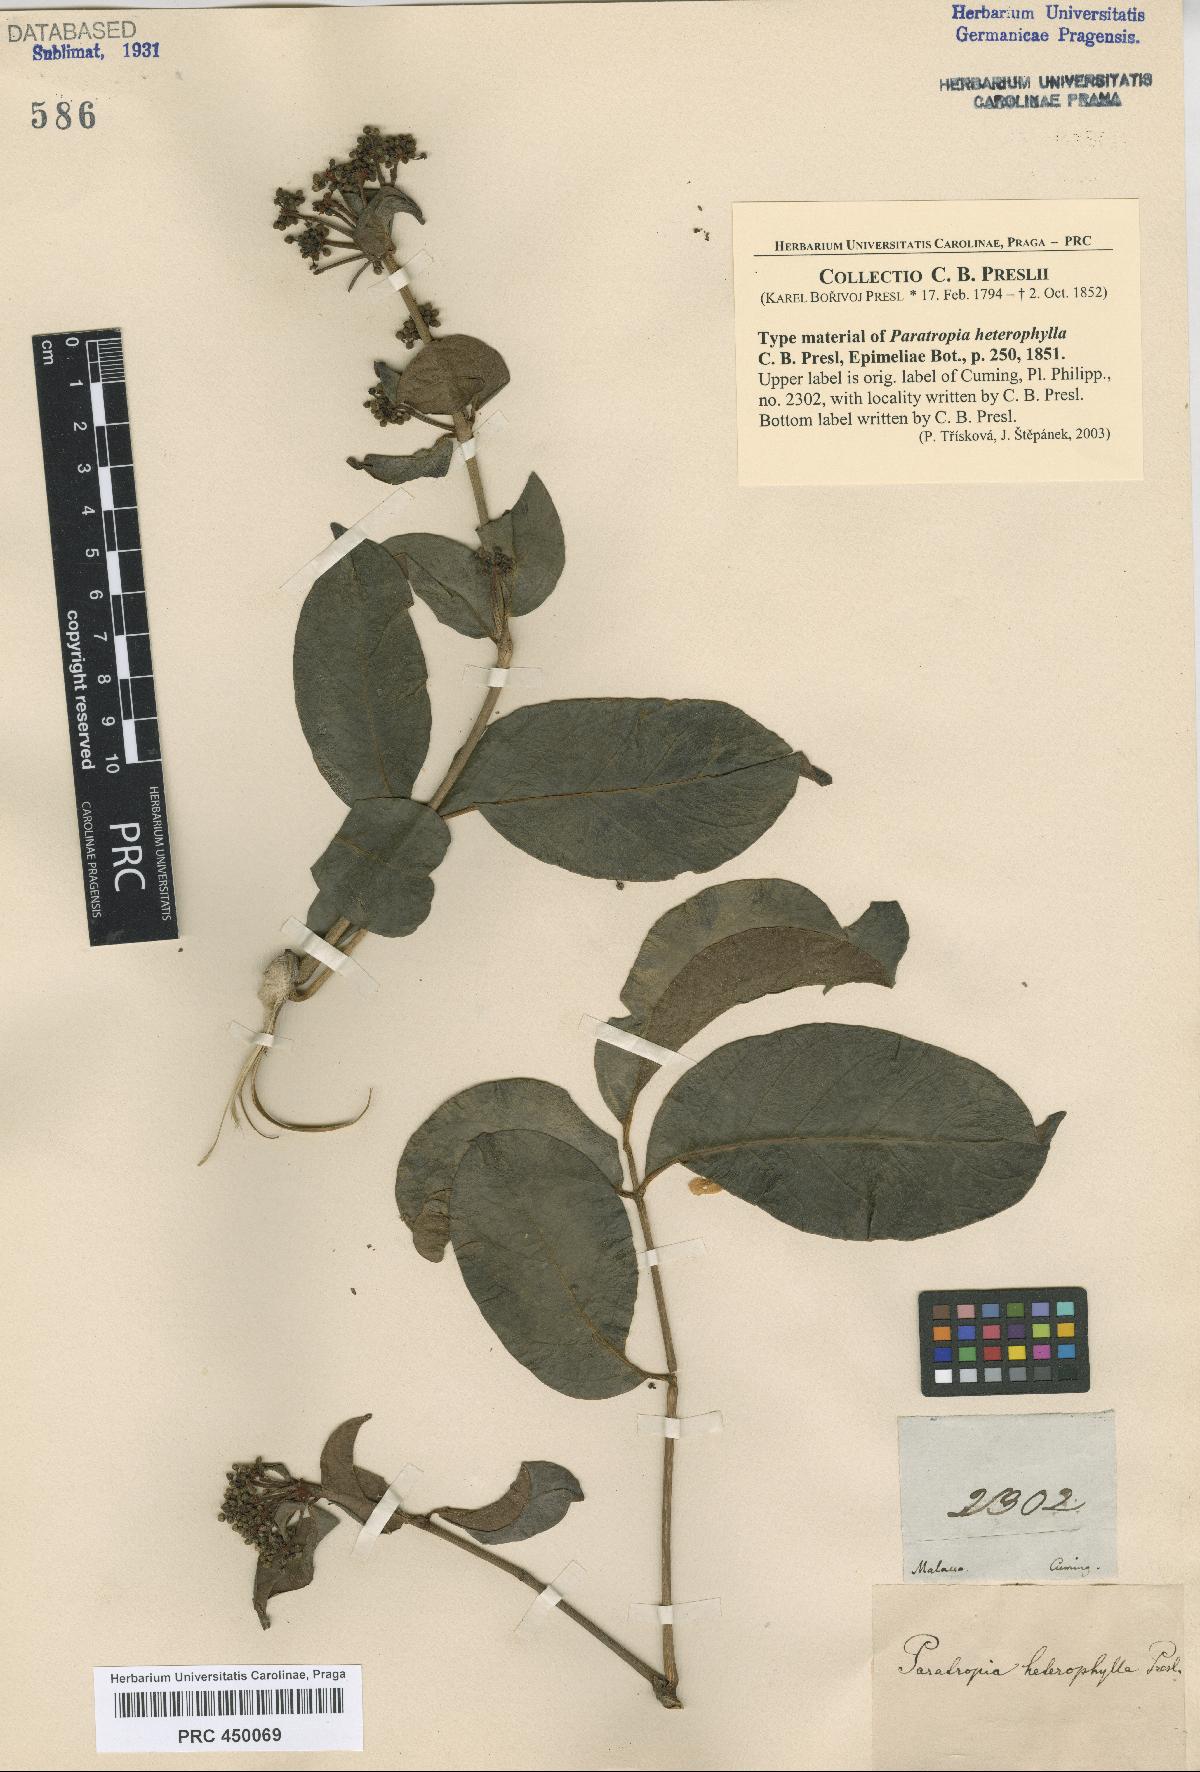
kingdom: Plantae
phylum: Tracheophyta
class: Magnoliopsida
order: Apiales
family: Araliaceae
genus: Heptapleurum
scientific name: Heptapleurum heterophyllum
